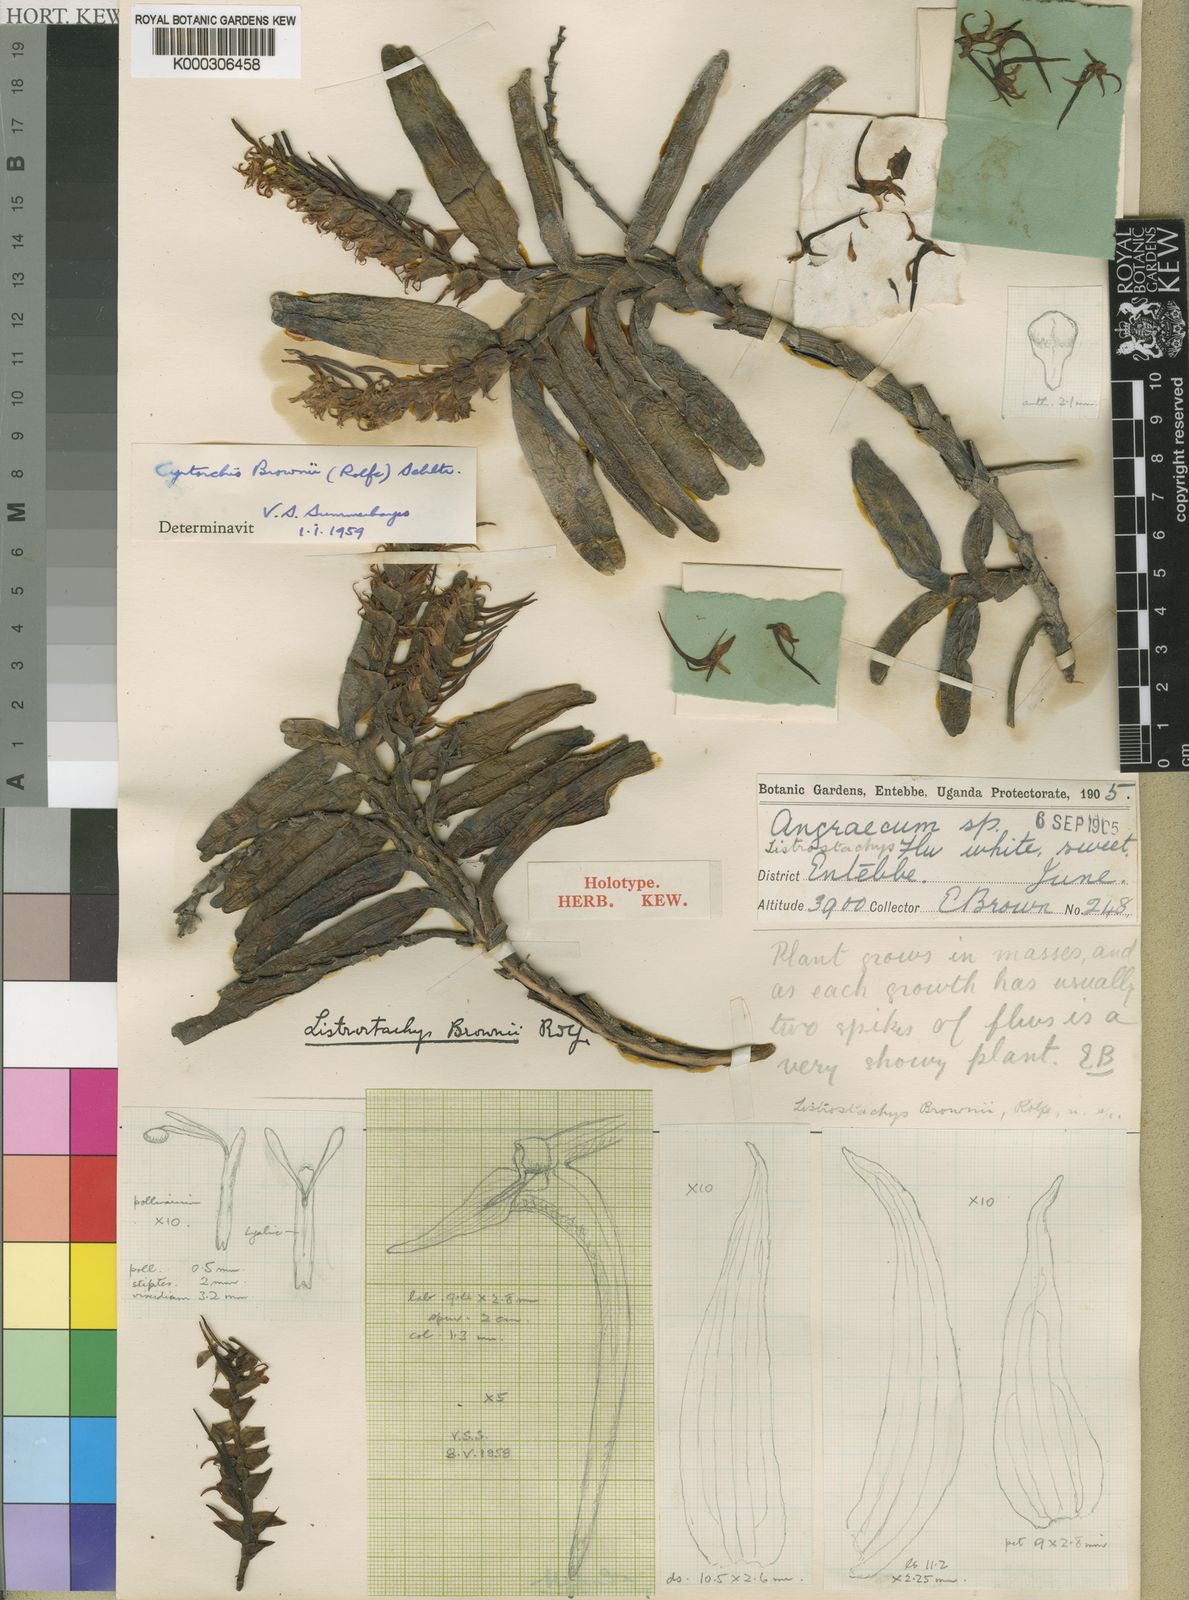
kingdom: Plantae
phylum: Tracheophyta
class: Liliopsida
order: Asparagales
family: Orchidaceae
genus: Cyrtorchis
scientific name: Cyrtorchis brownii
